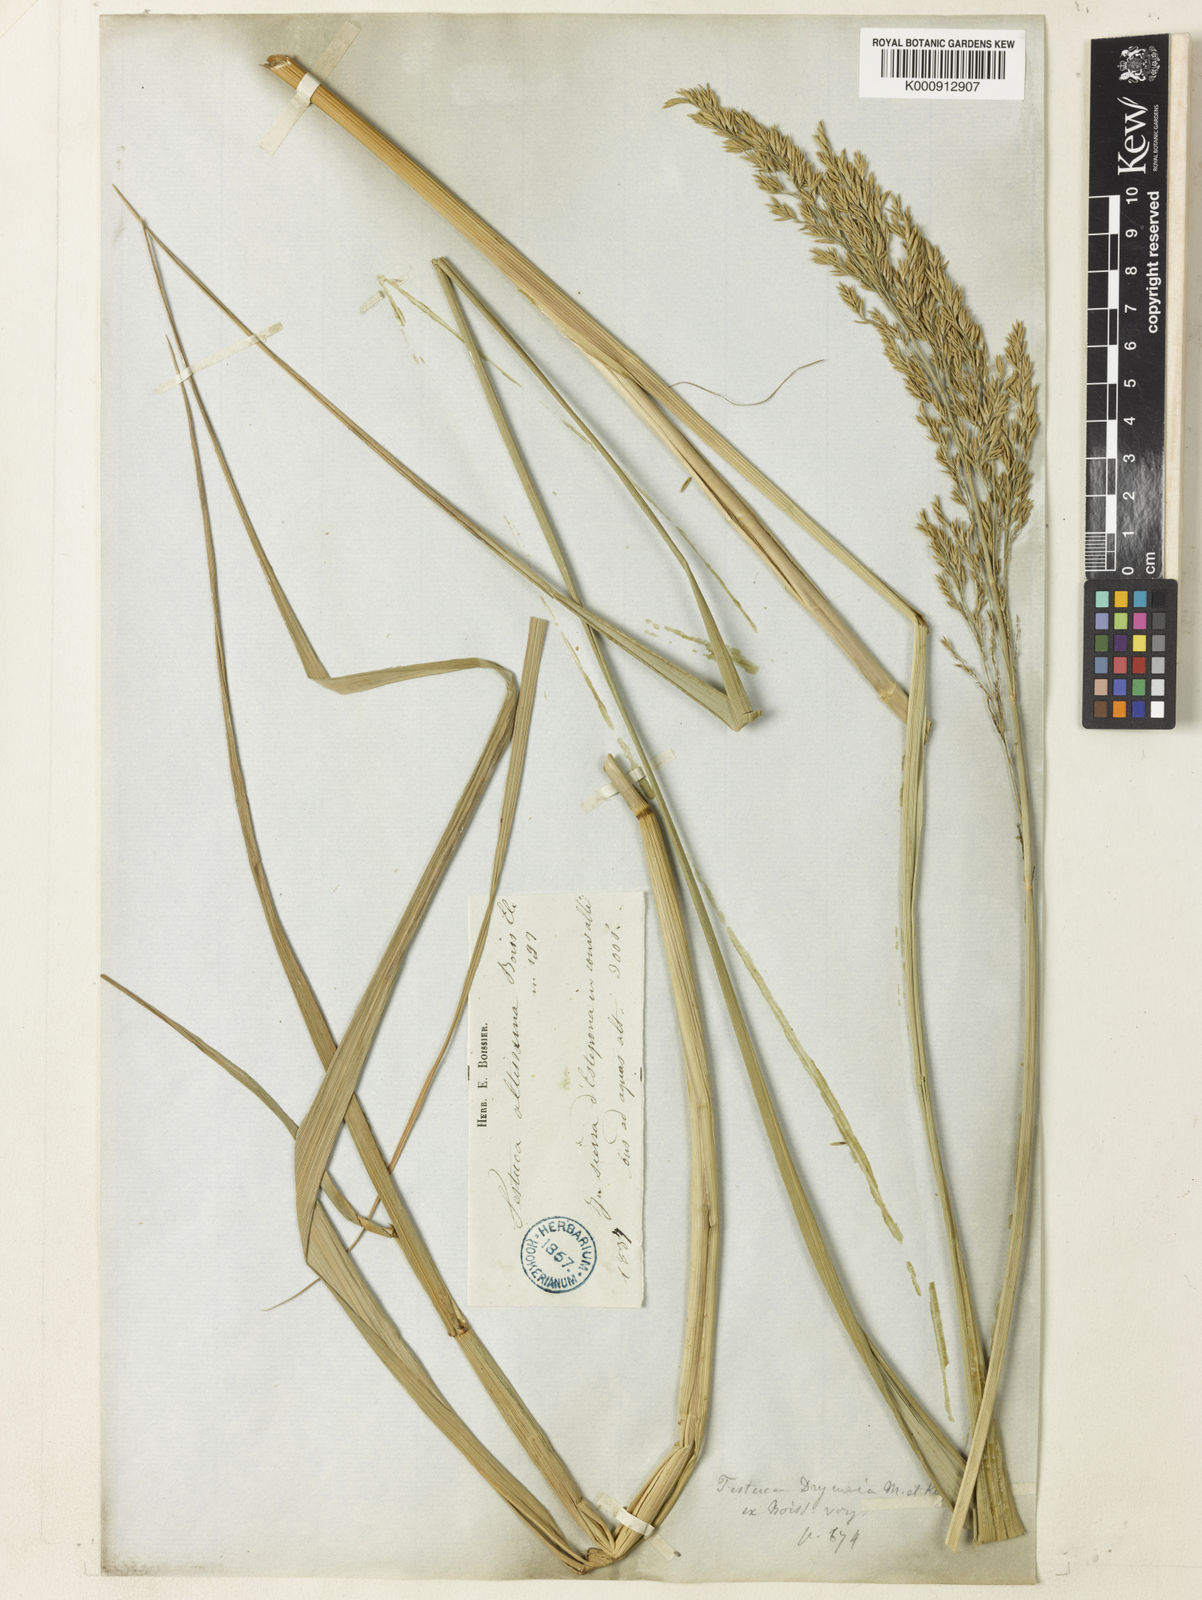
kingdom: Plantae
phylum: Tracheophyta
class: Liliopsida
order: Poales
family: Poaceae
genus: Festuca
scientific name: Festuca drymeja
